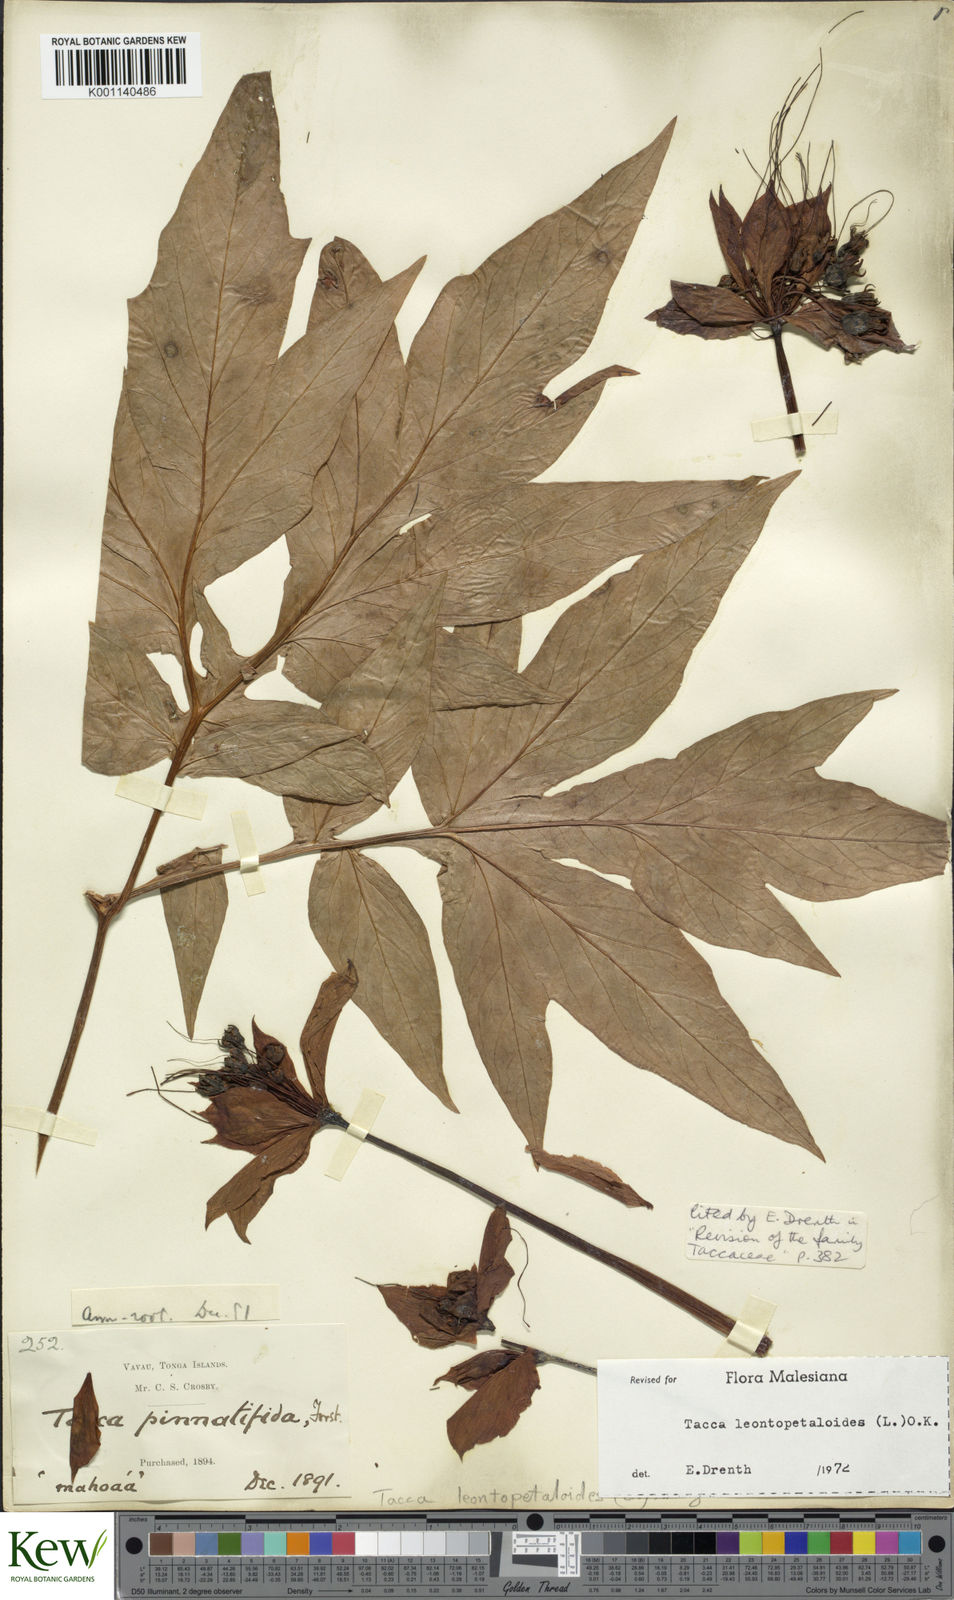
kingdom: Plantae
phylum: Tracheophyta
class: Liliopsida
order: Dioscoreales
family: Dioscoreaceae
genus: Tacca
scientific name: Tacca leontopetaloides
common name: Arrowroot
